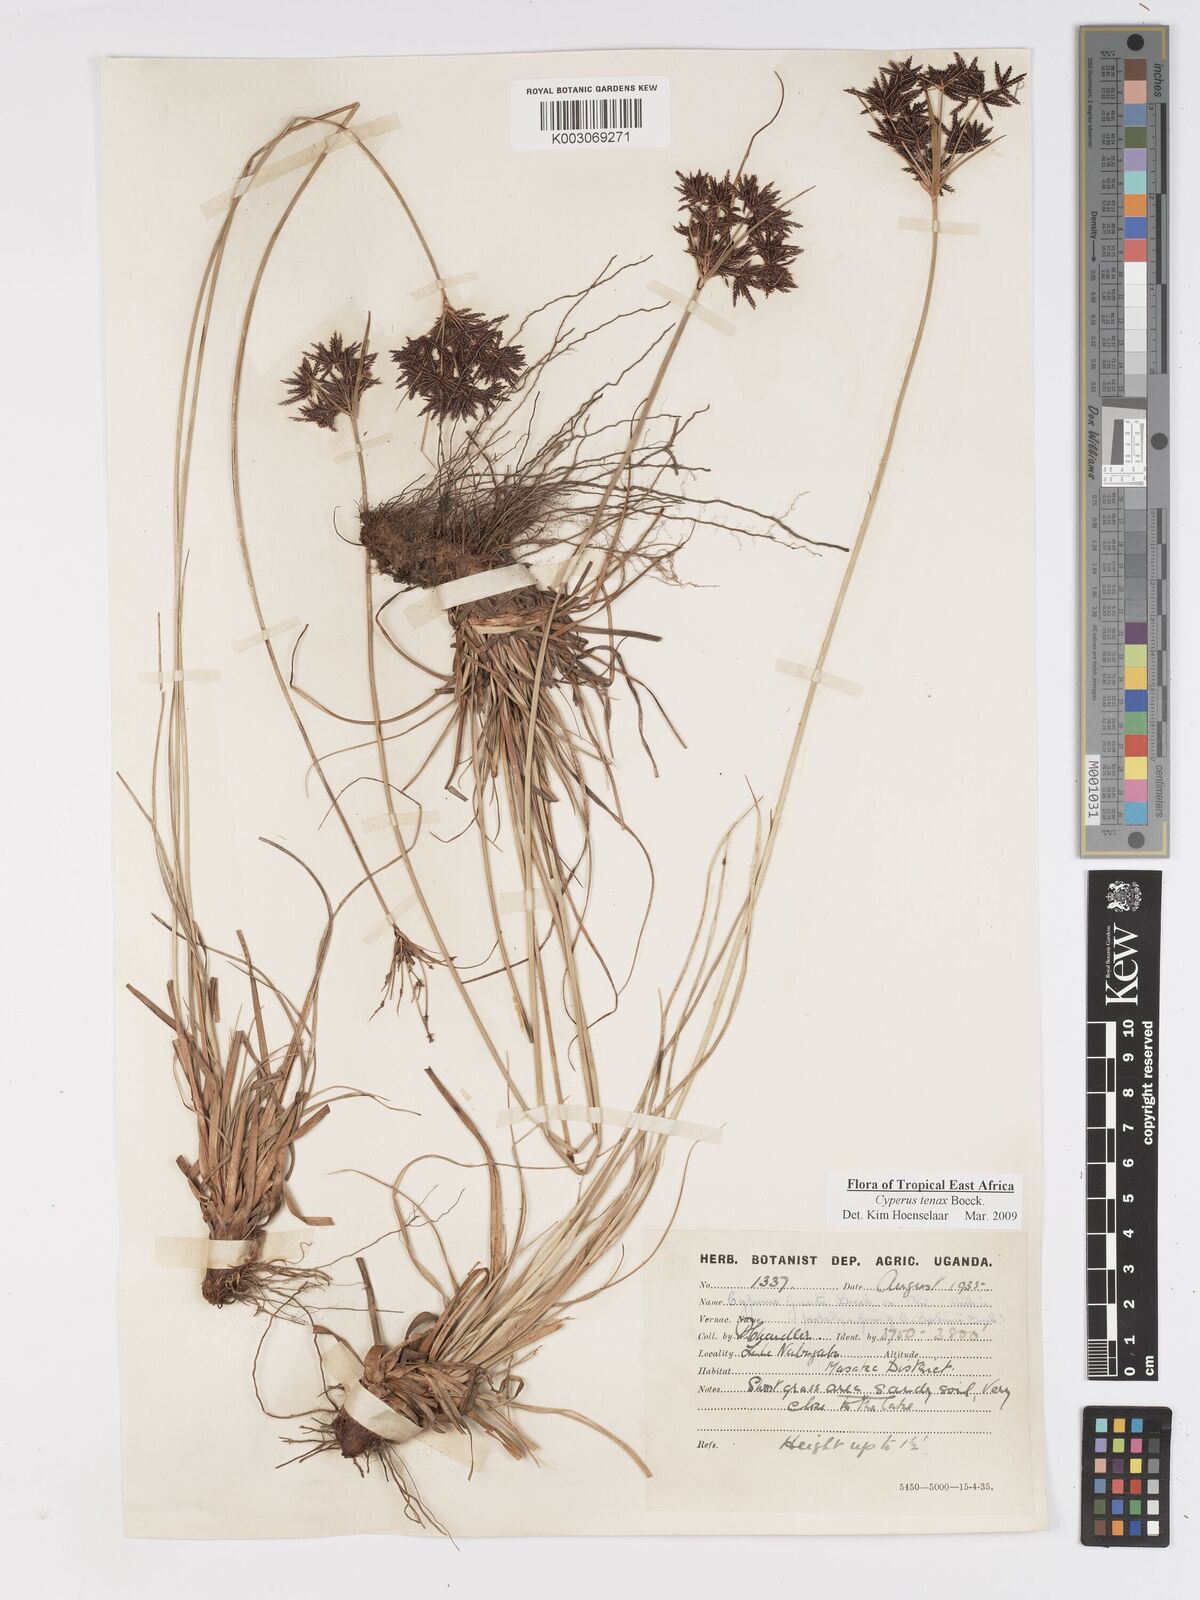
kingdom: Plantae
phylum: Tracheophyta
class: Liliopsida
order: Poales
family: Cyperaceae
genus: Cyperus
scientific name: Cyperus tenax
